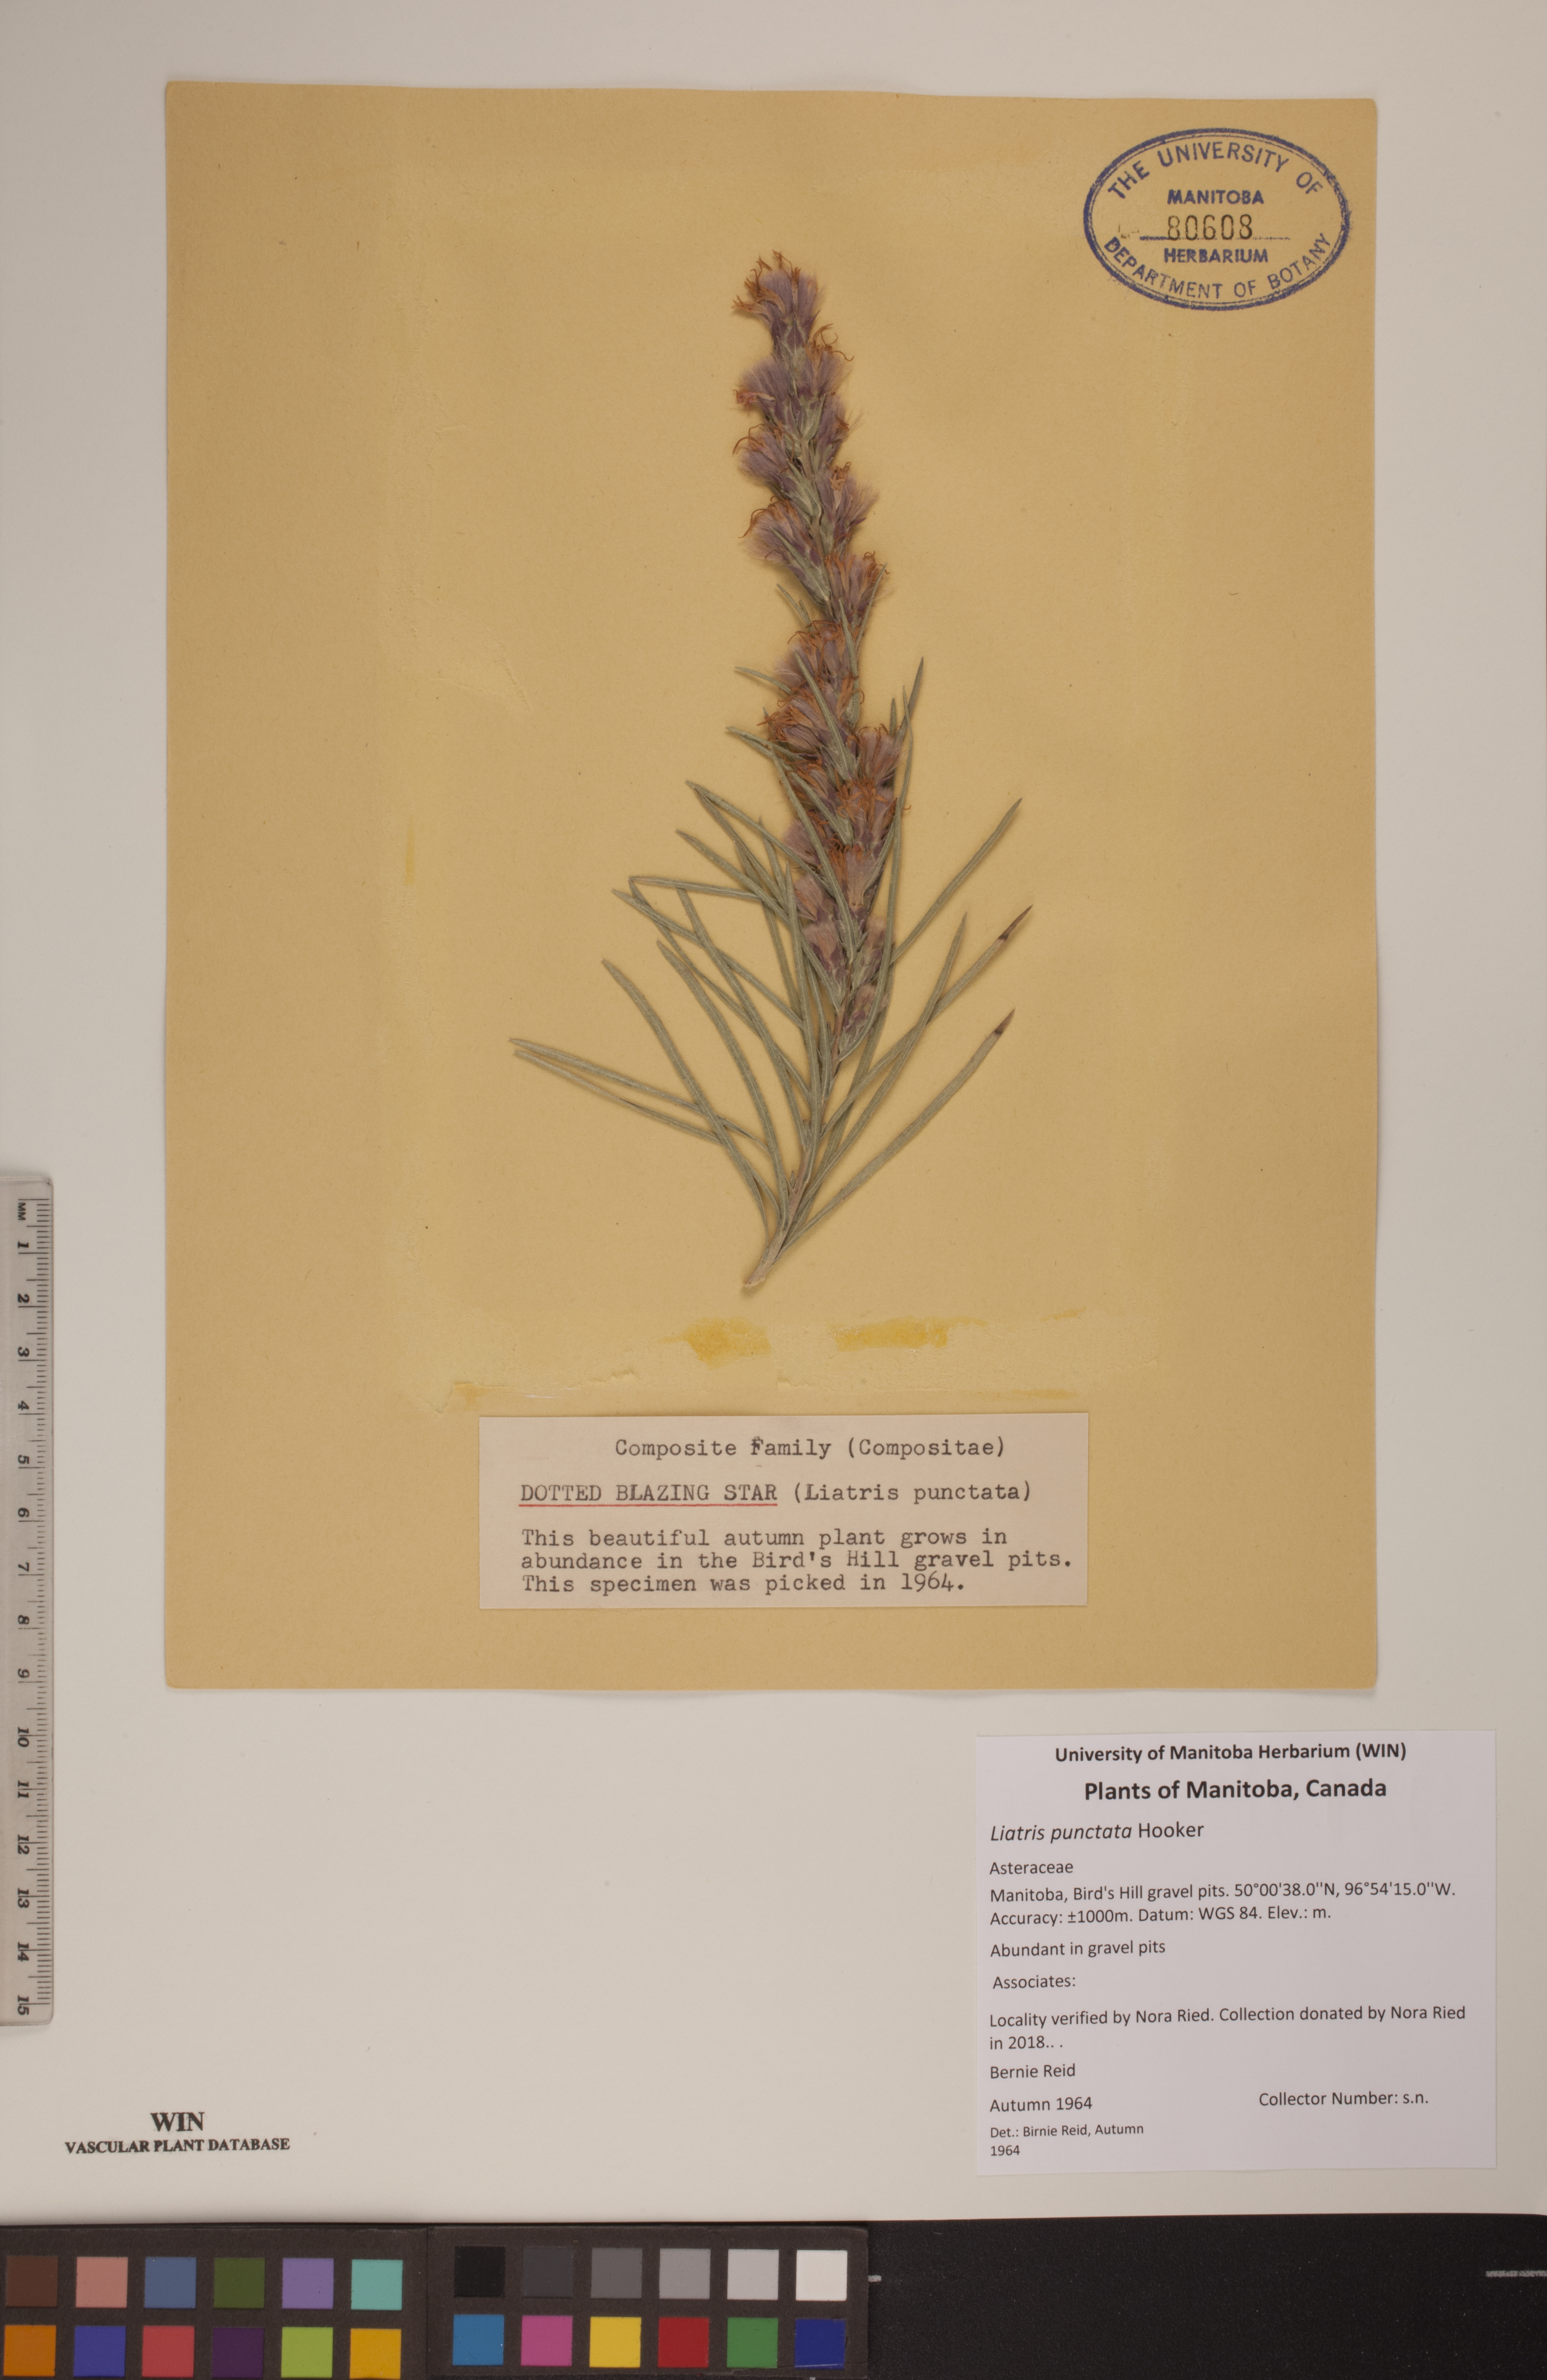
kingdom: Plantae
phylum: Tracheophyta
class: Magnoliopsida
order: Asterales
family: Asteraceae
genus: Liatris
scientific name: Liatris punctata
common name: Dotted gayfeather
